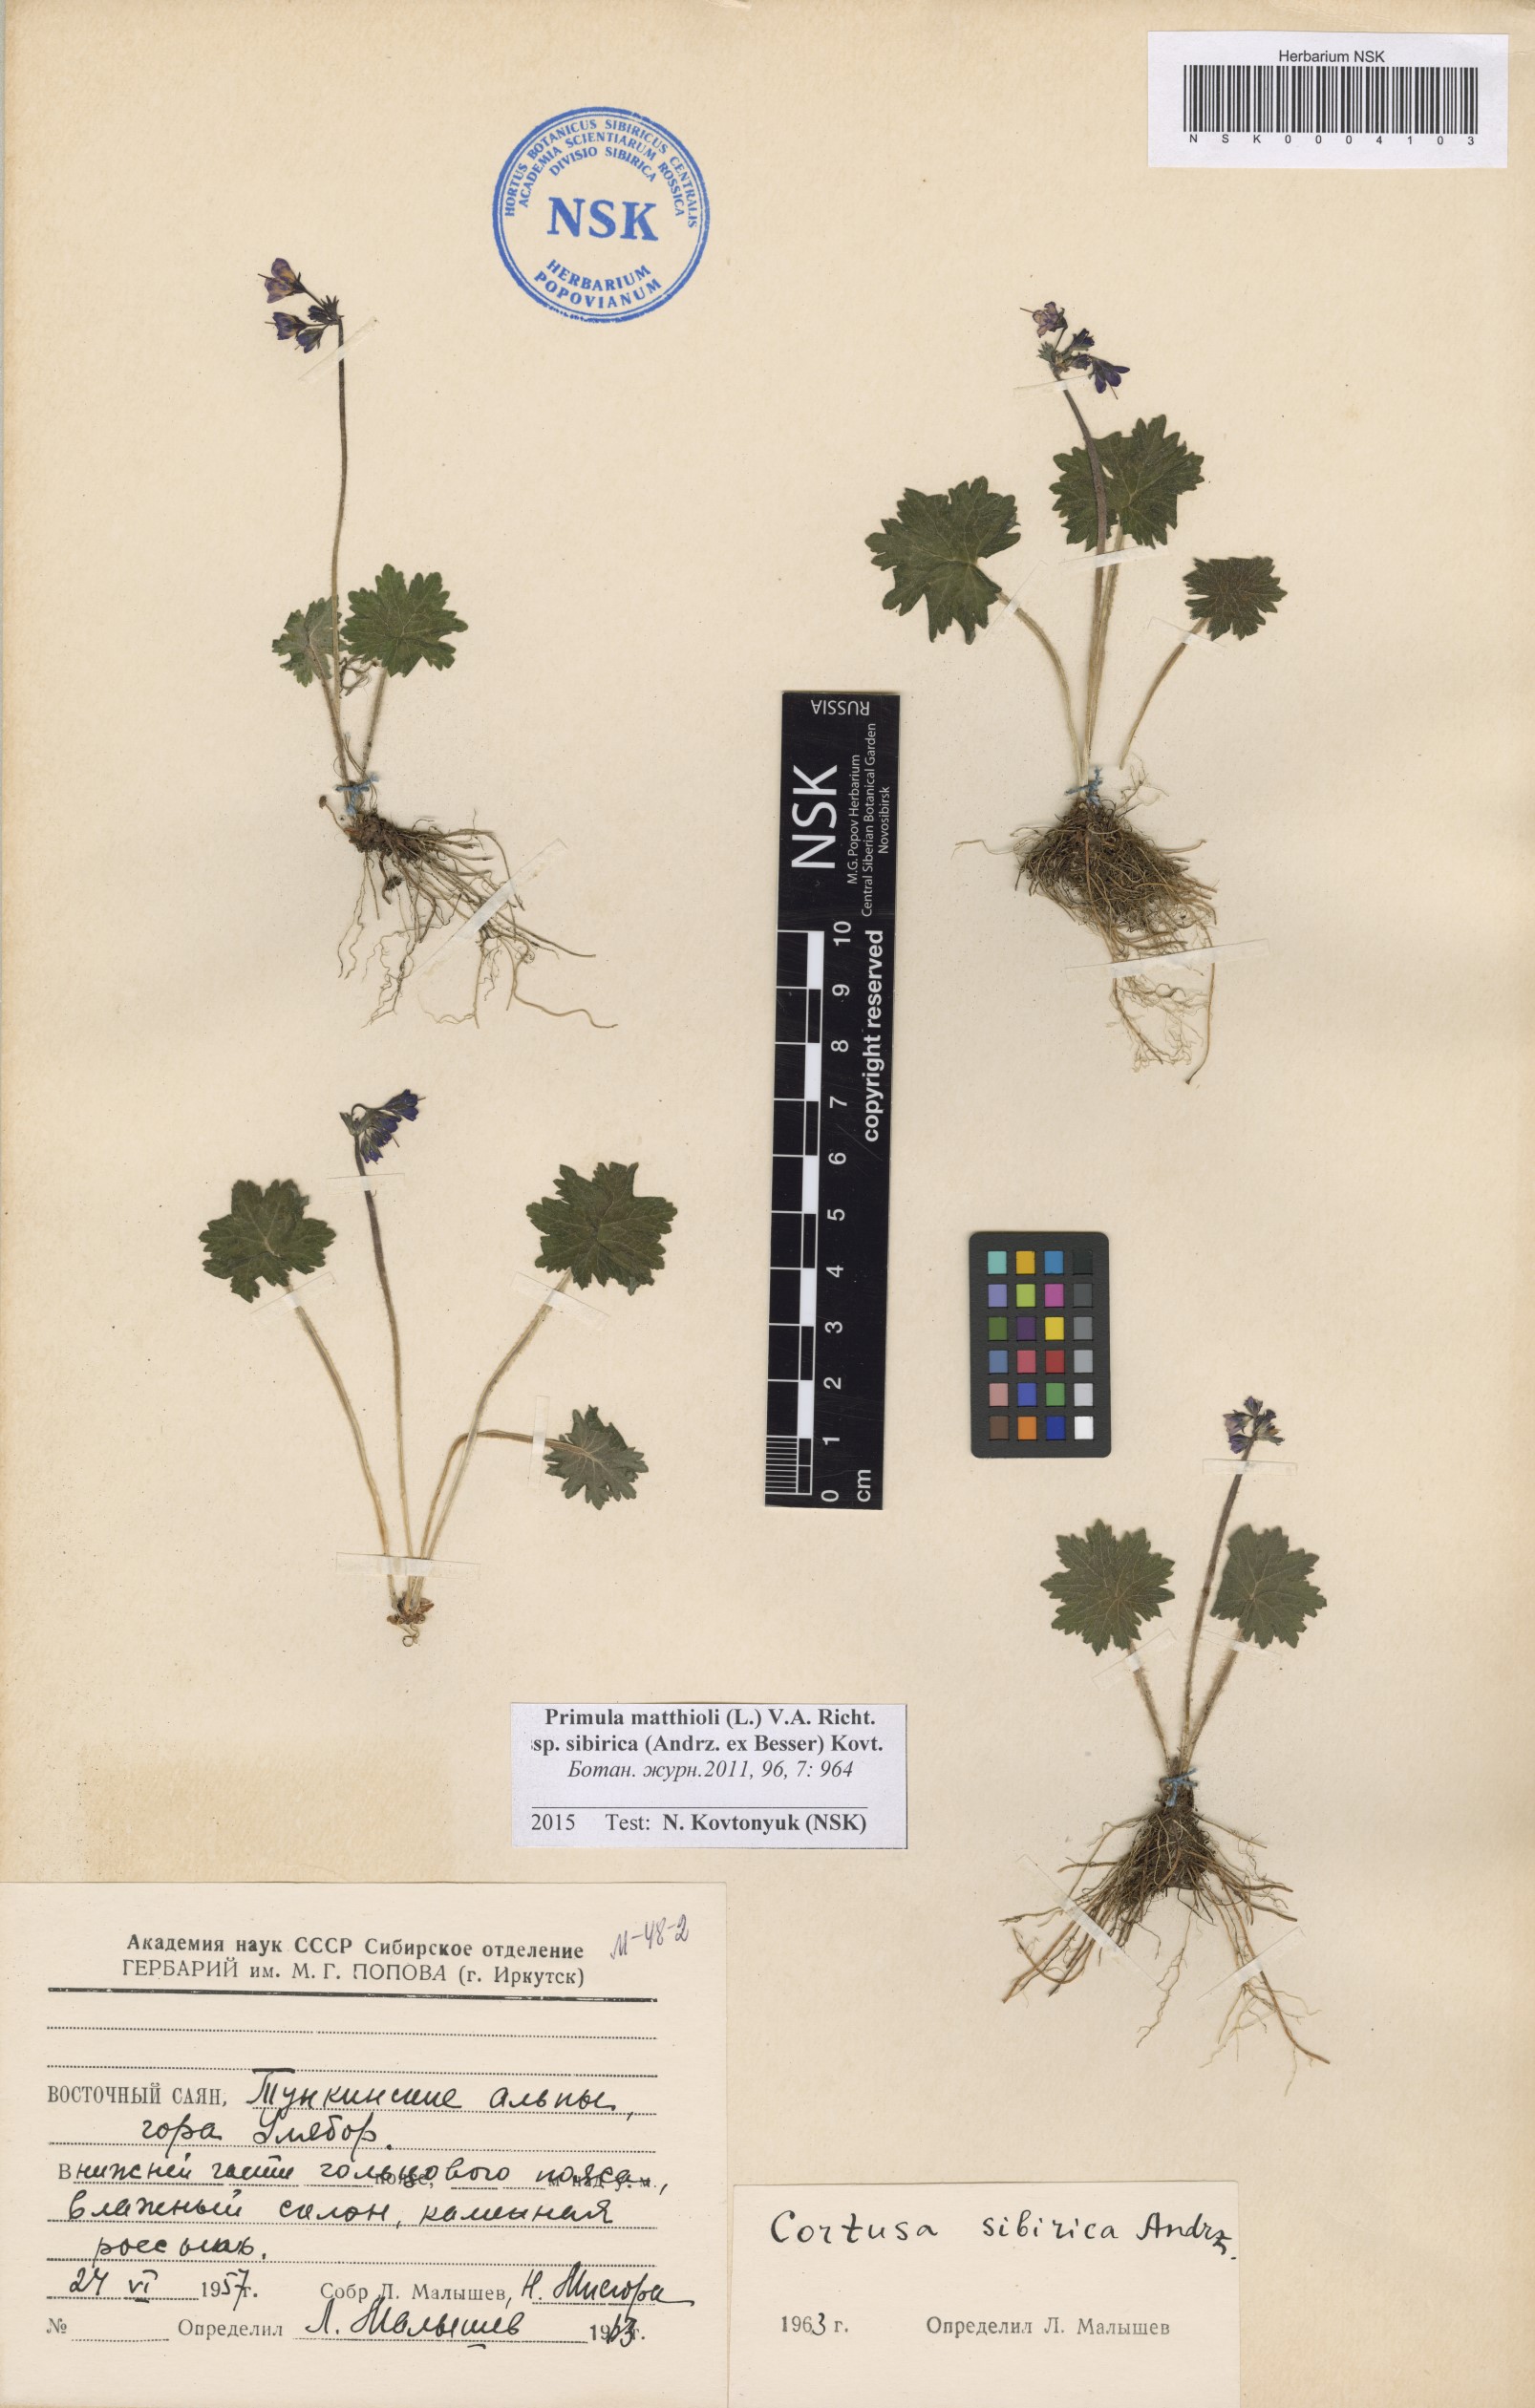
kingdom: Plantae
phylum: Tracheophyta
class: Magnoliopsida
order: Ericales
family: Primulaceae
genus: Primula
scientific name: Primula matthioli
